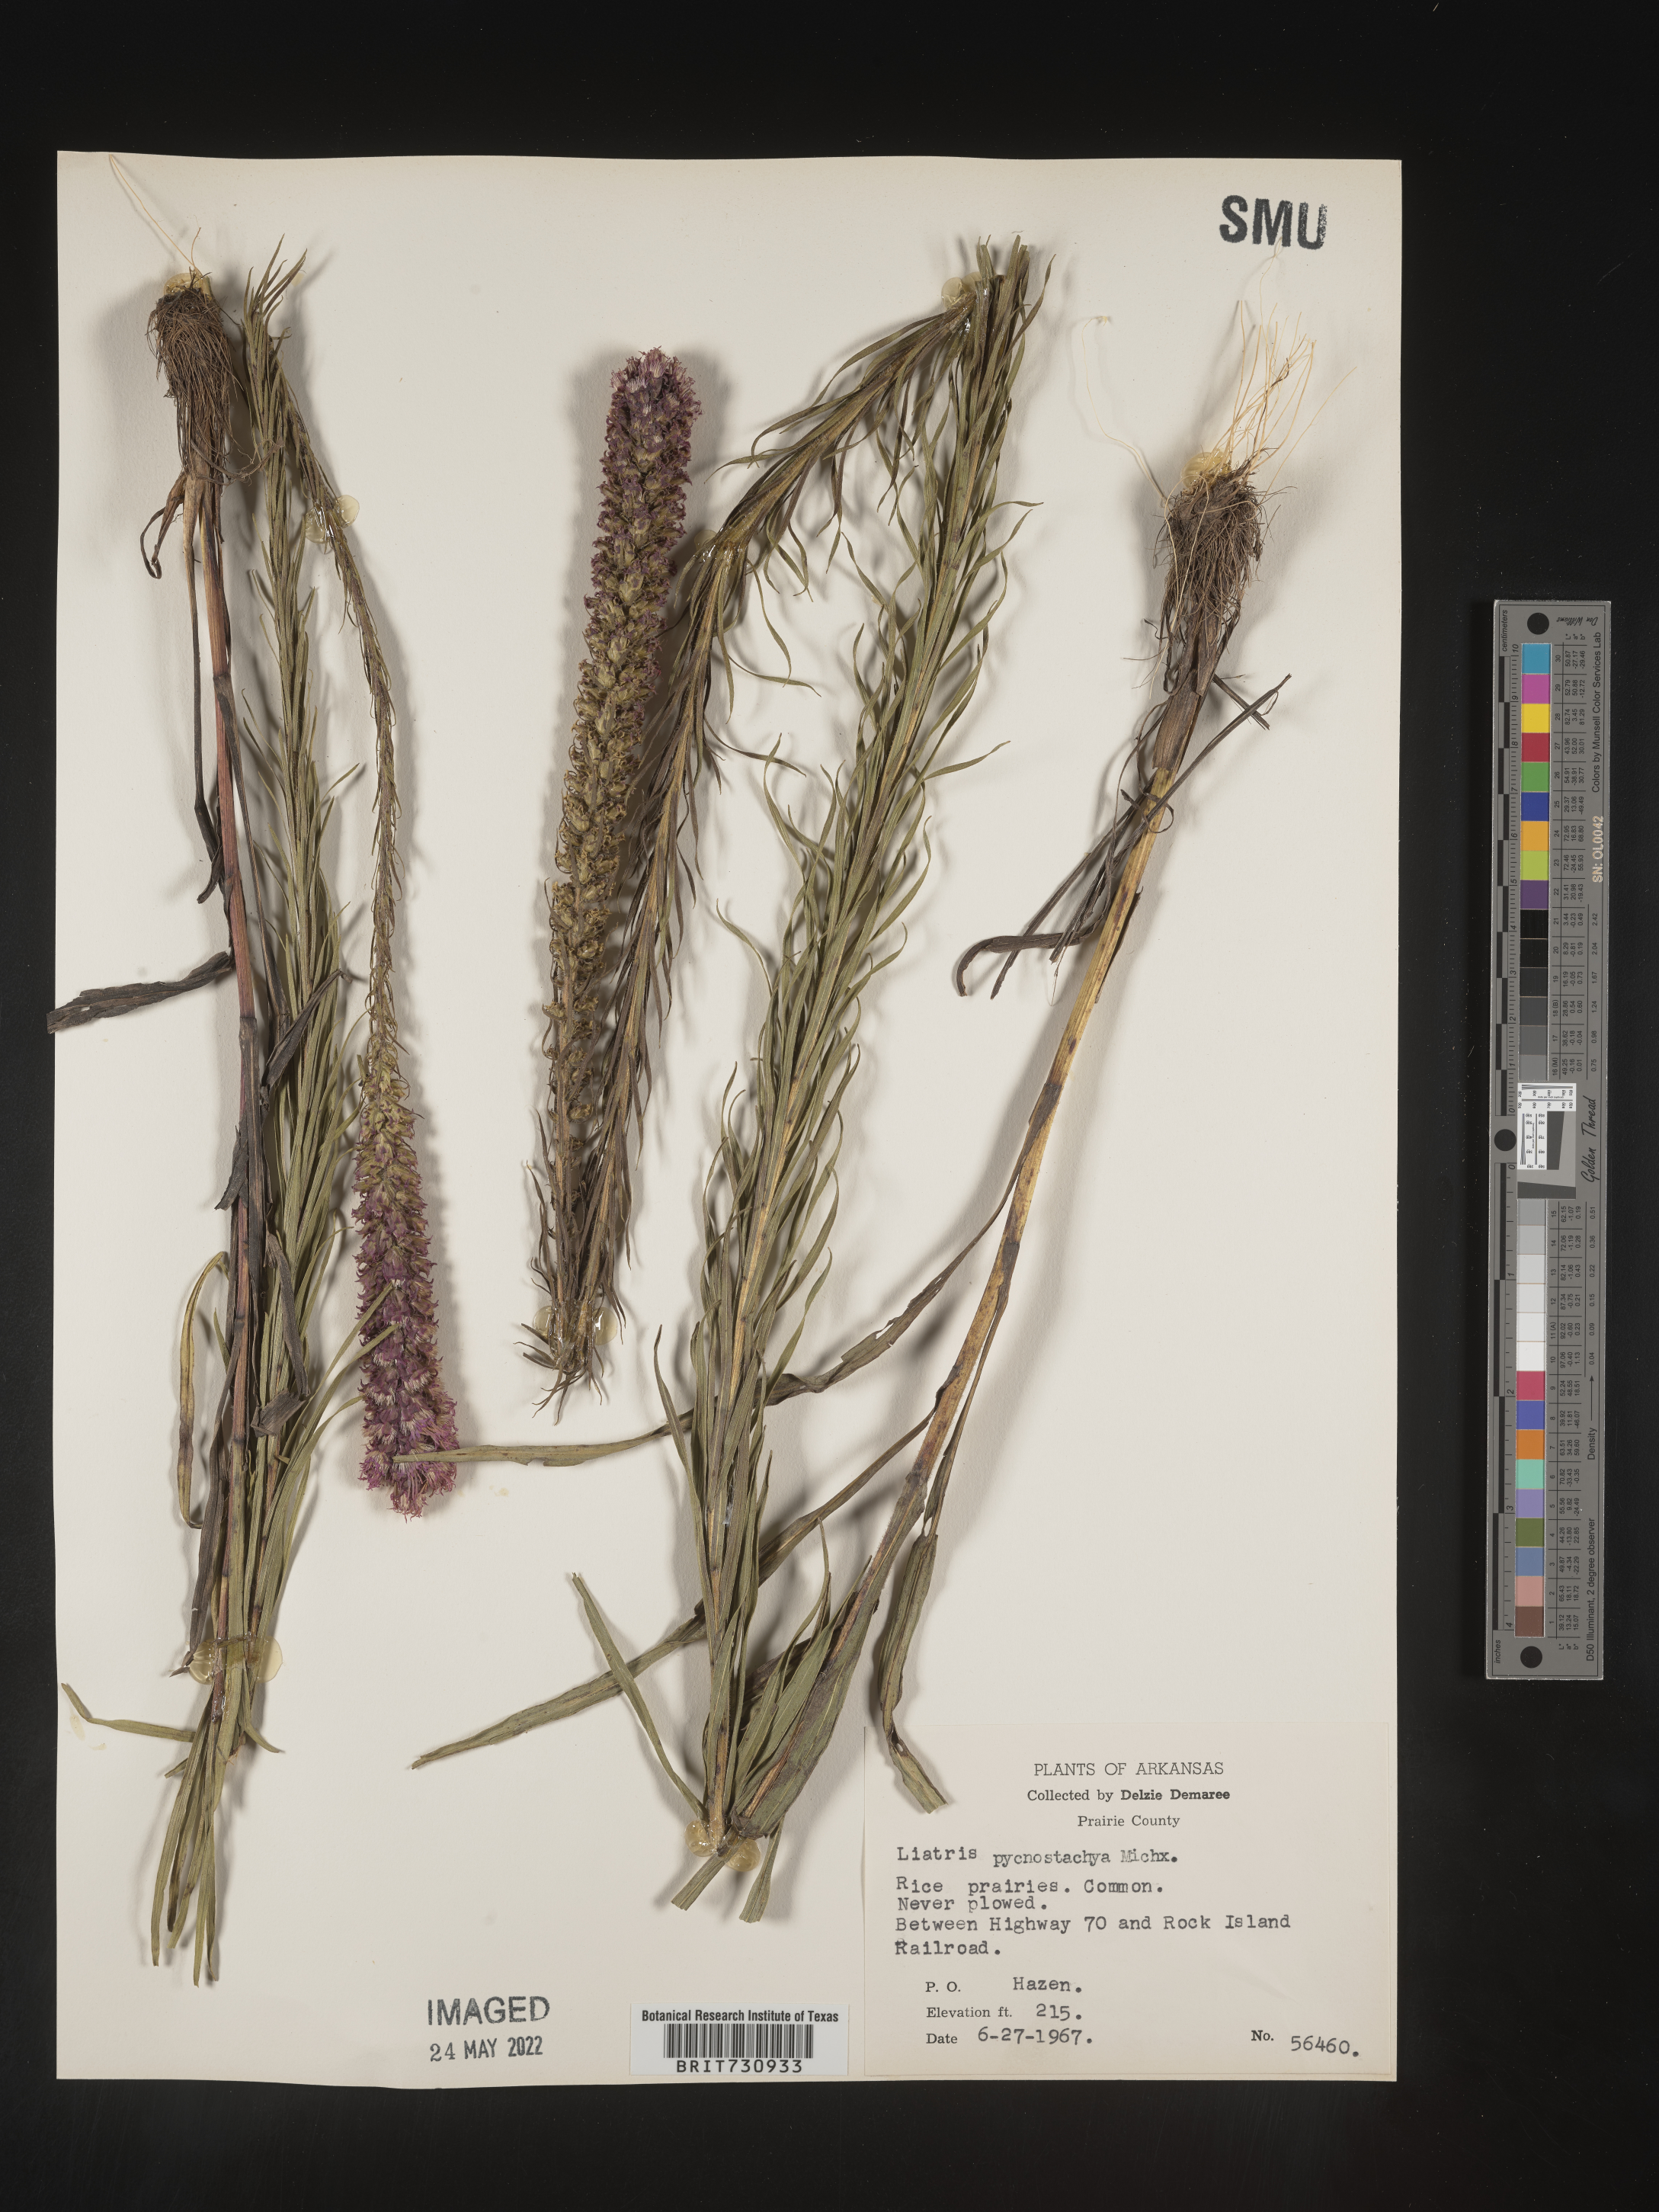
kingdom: Plantae
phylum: Tracheophyta
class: Magnoliopsida
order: Asterales
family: Asteraceae
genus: Liatris
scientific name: Liatris pycnostachya
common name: Cattail gayfeather
